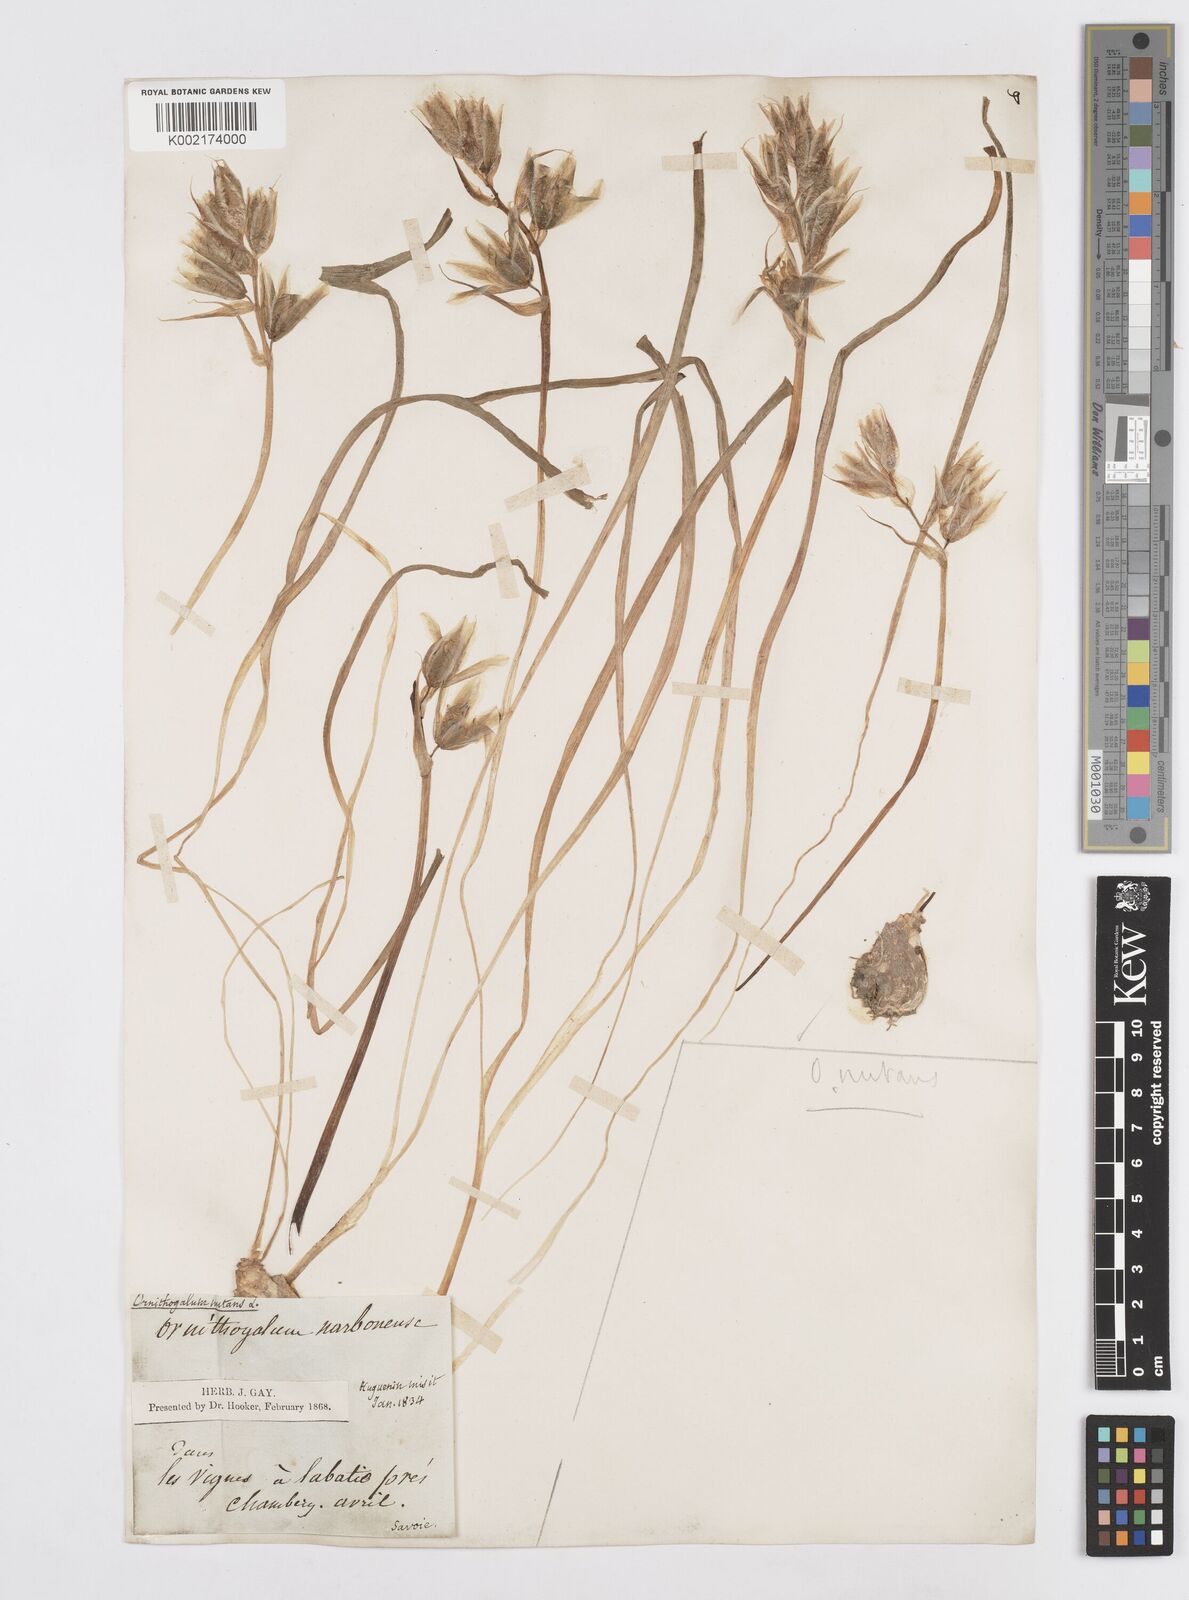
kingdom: Plantae
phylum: Tracheophyta
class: Liliopsida
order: Asparagales
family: Asparagaceae
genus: Ornithogalum
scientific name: Ornithogalum nutans
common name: Drooping star-of-bethlehem
